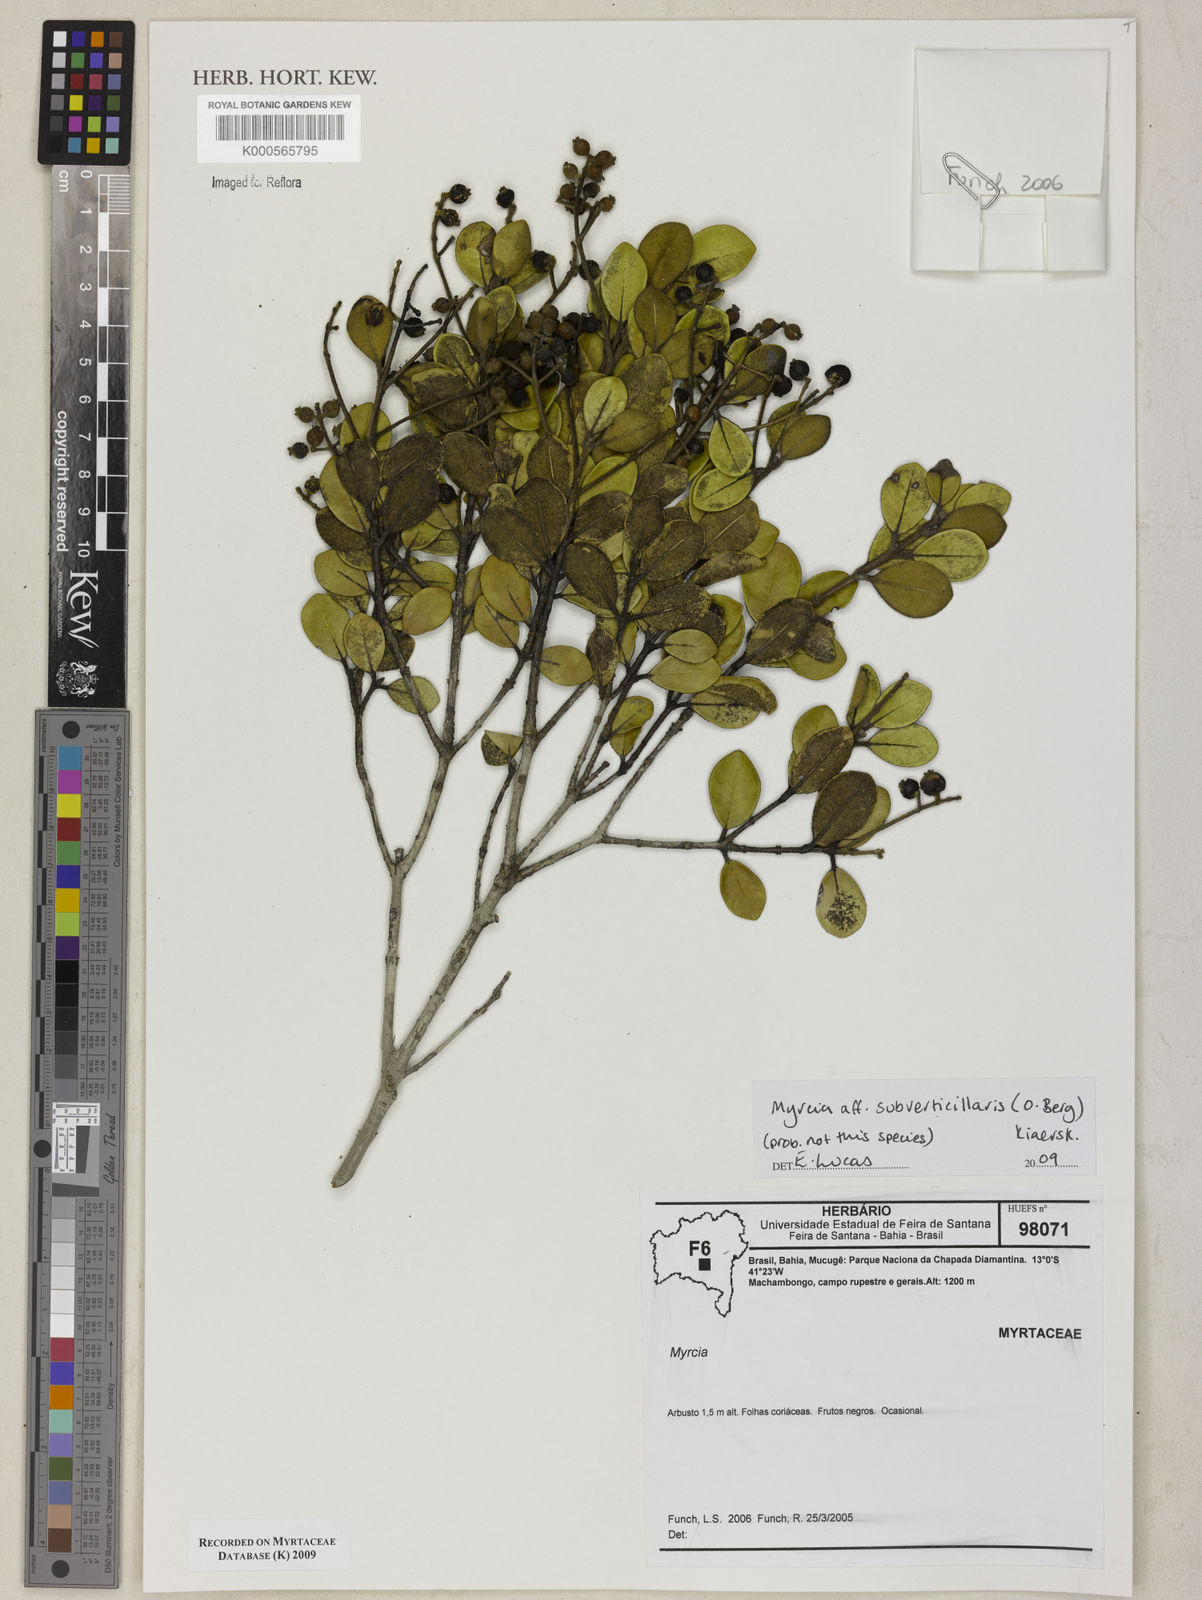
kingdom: Plantae
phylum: Tracheophyta
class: Magnoliopsida
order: Myrtales
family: Myrtaceae
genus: Myrcia
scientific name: Myrcia
